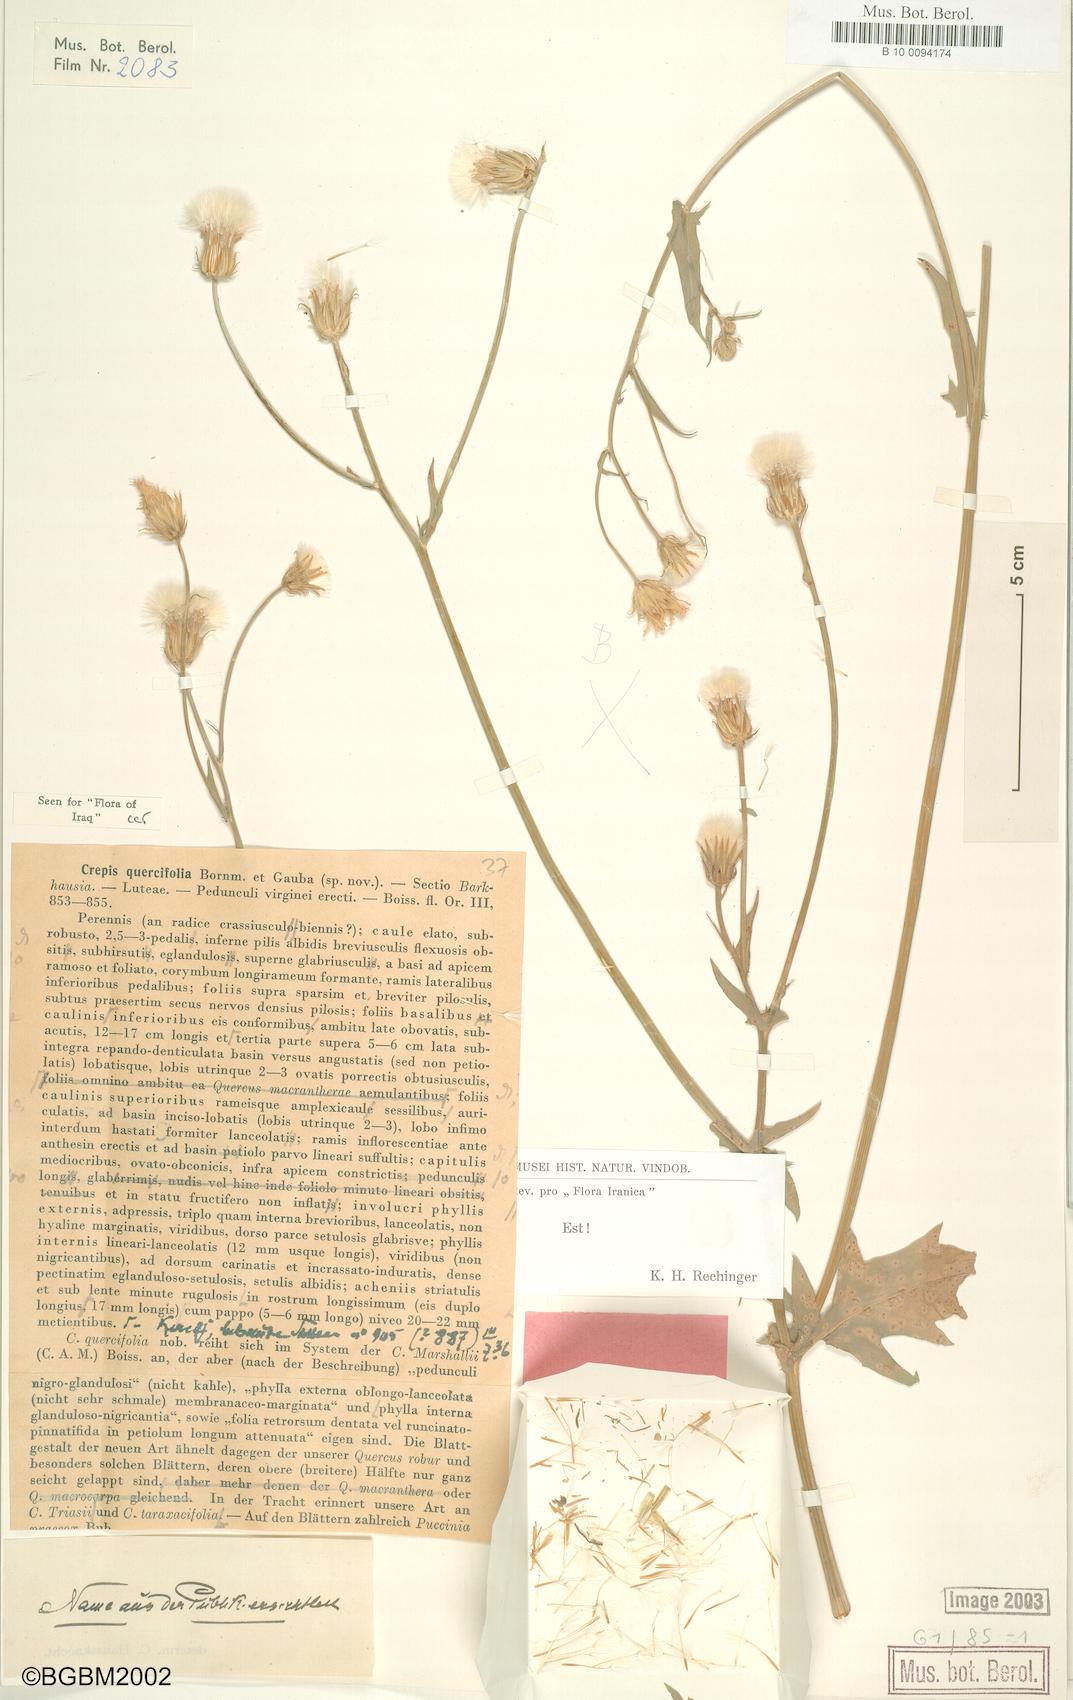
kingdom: Plantae
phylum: Tracheophyta
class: Magnoliopsida
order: Asterales
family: Asteraceae
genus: Crepis
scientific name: Crepis quercifolia
